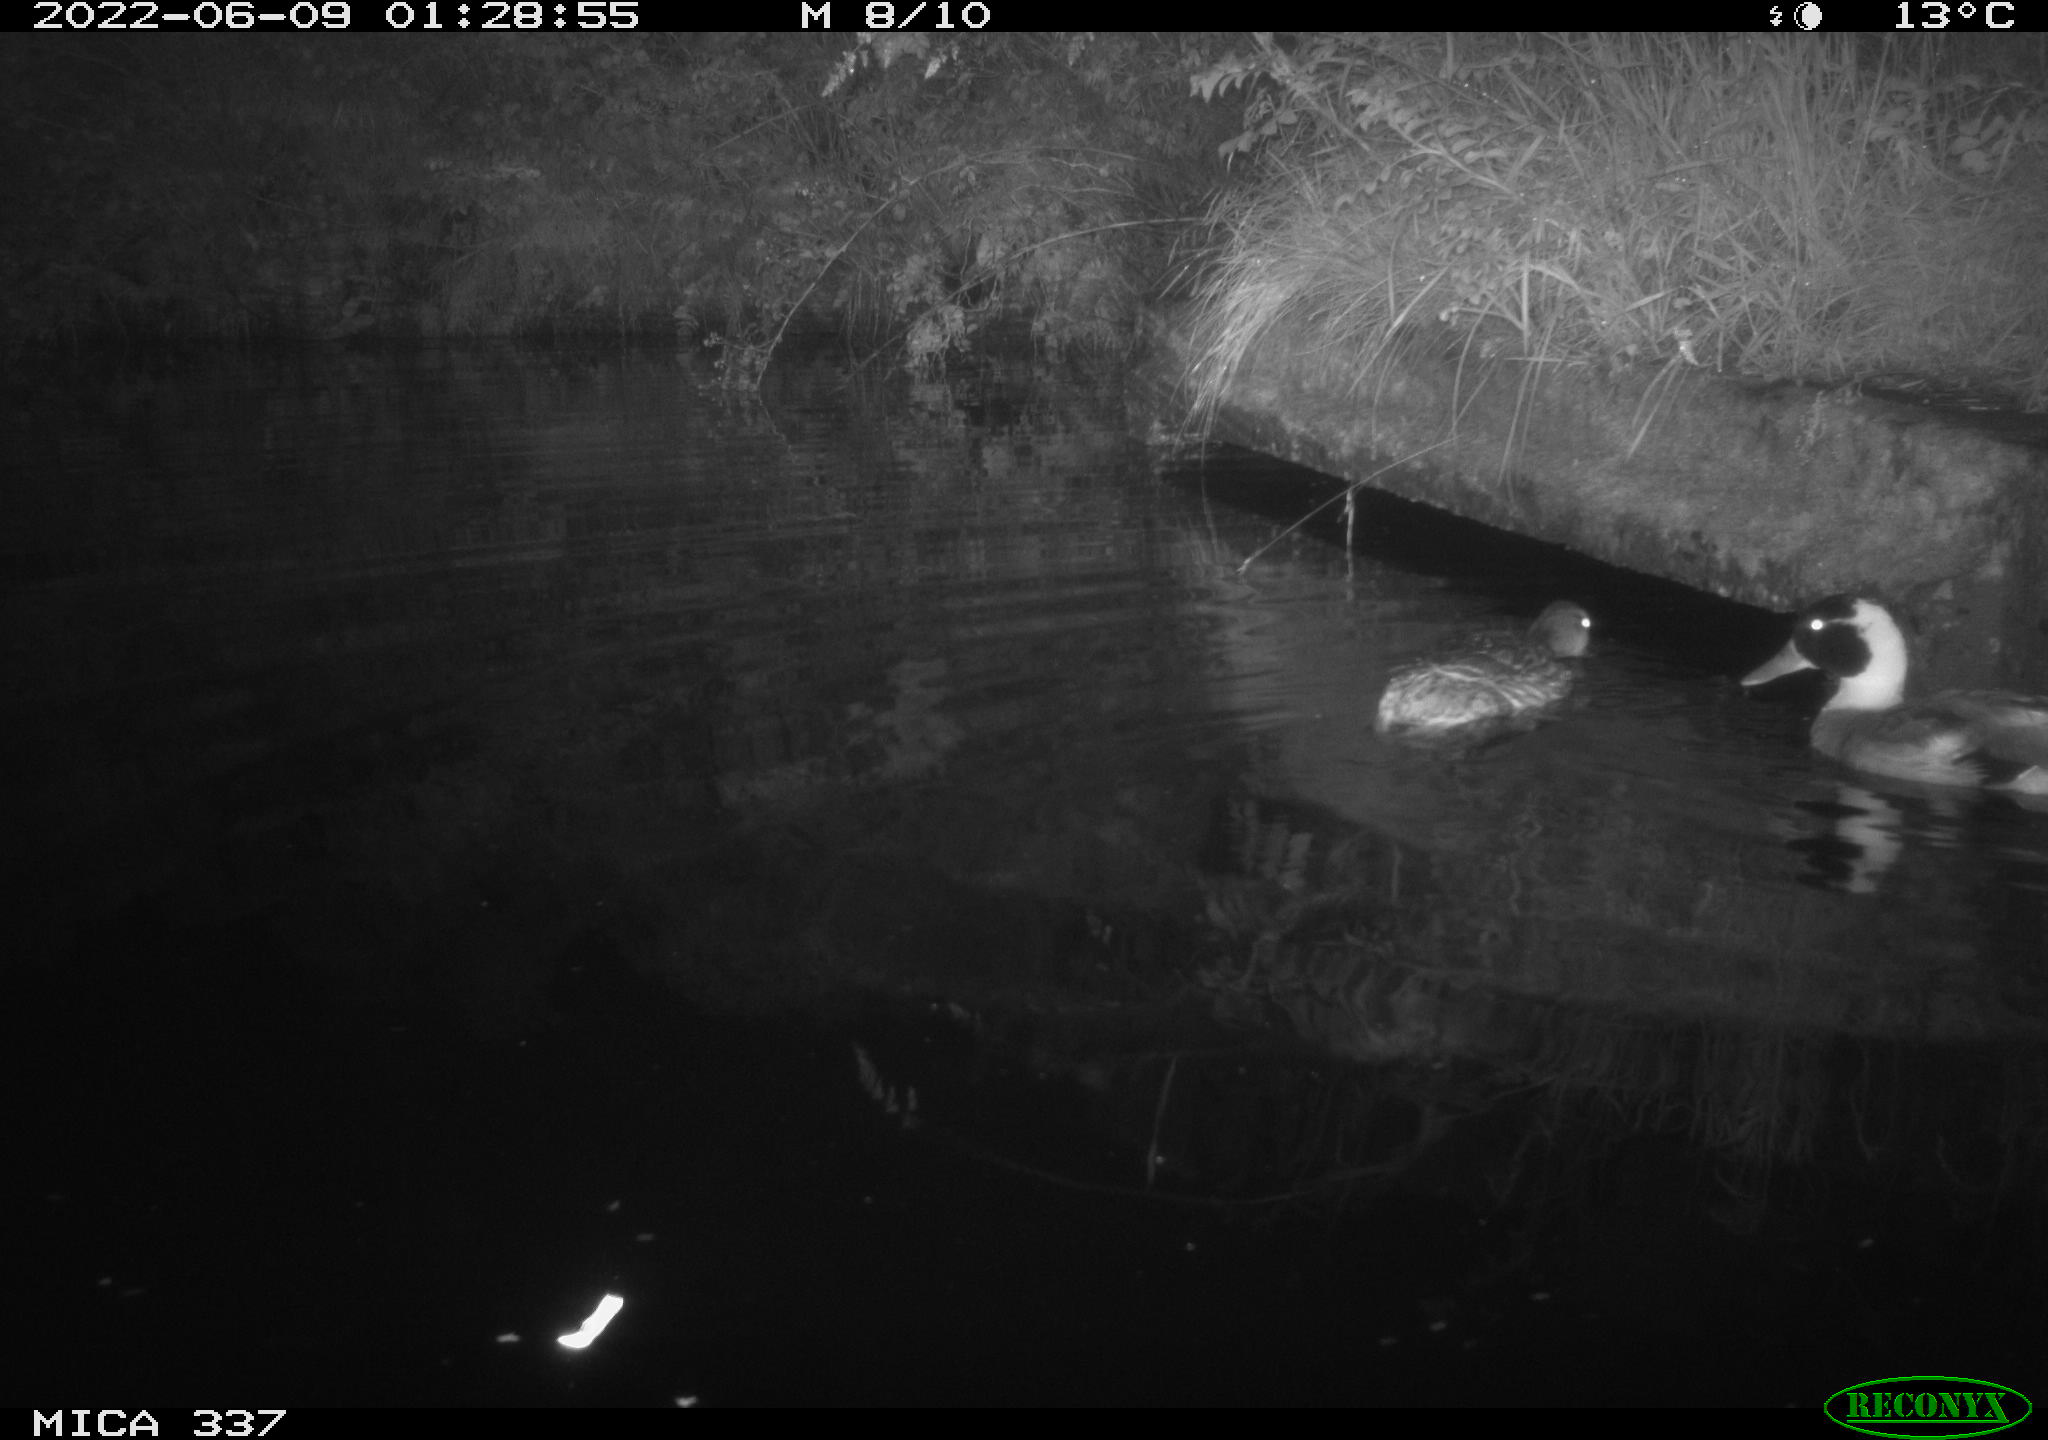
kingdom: Animalia
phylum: Chordata
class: Aves
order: Anseriformes
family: Anatidae
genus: Anas
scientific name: Anas platyrhynchos
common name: Mallard
